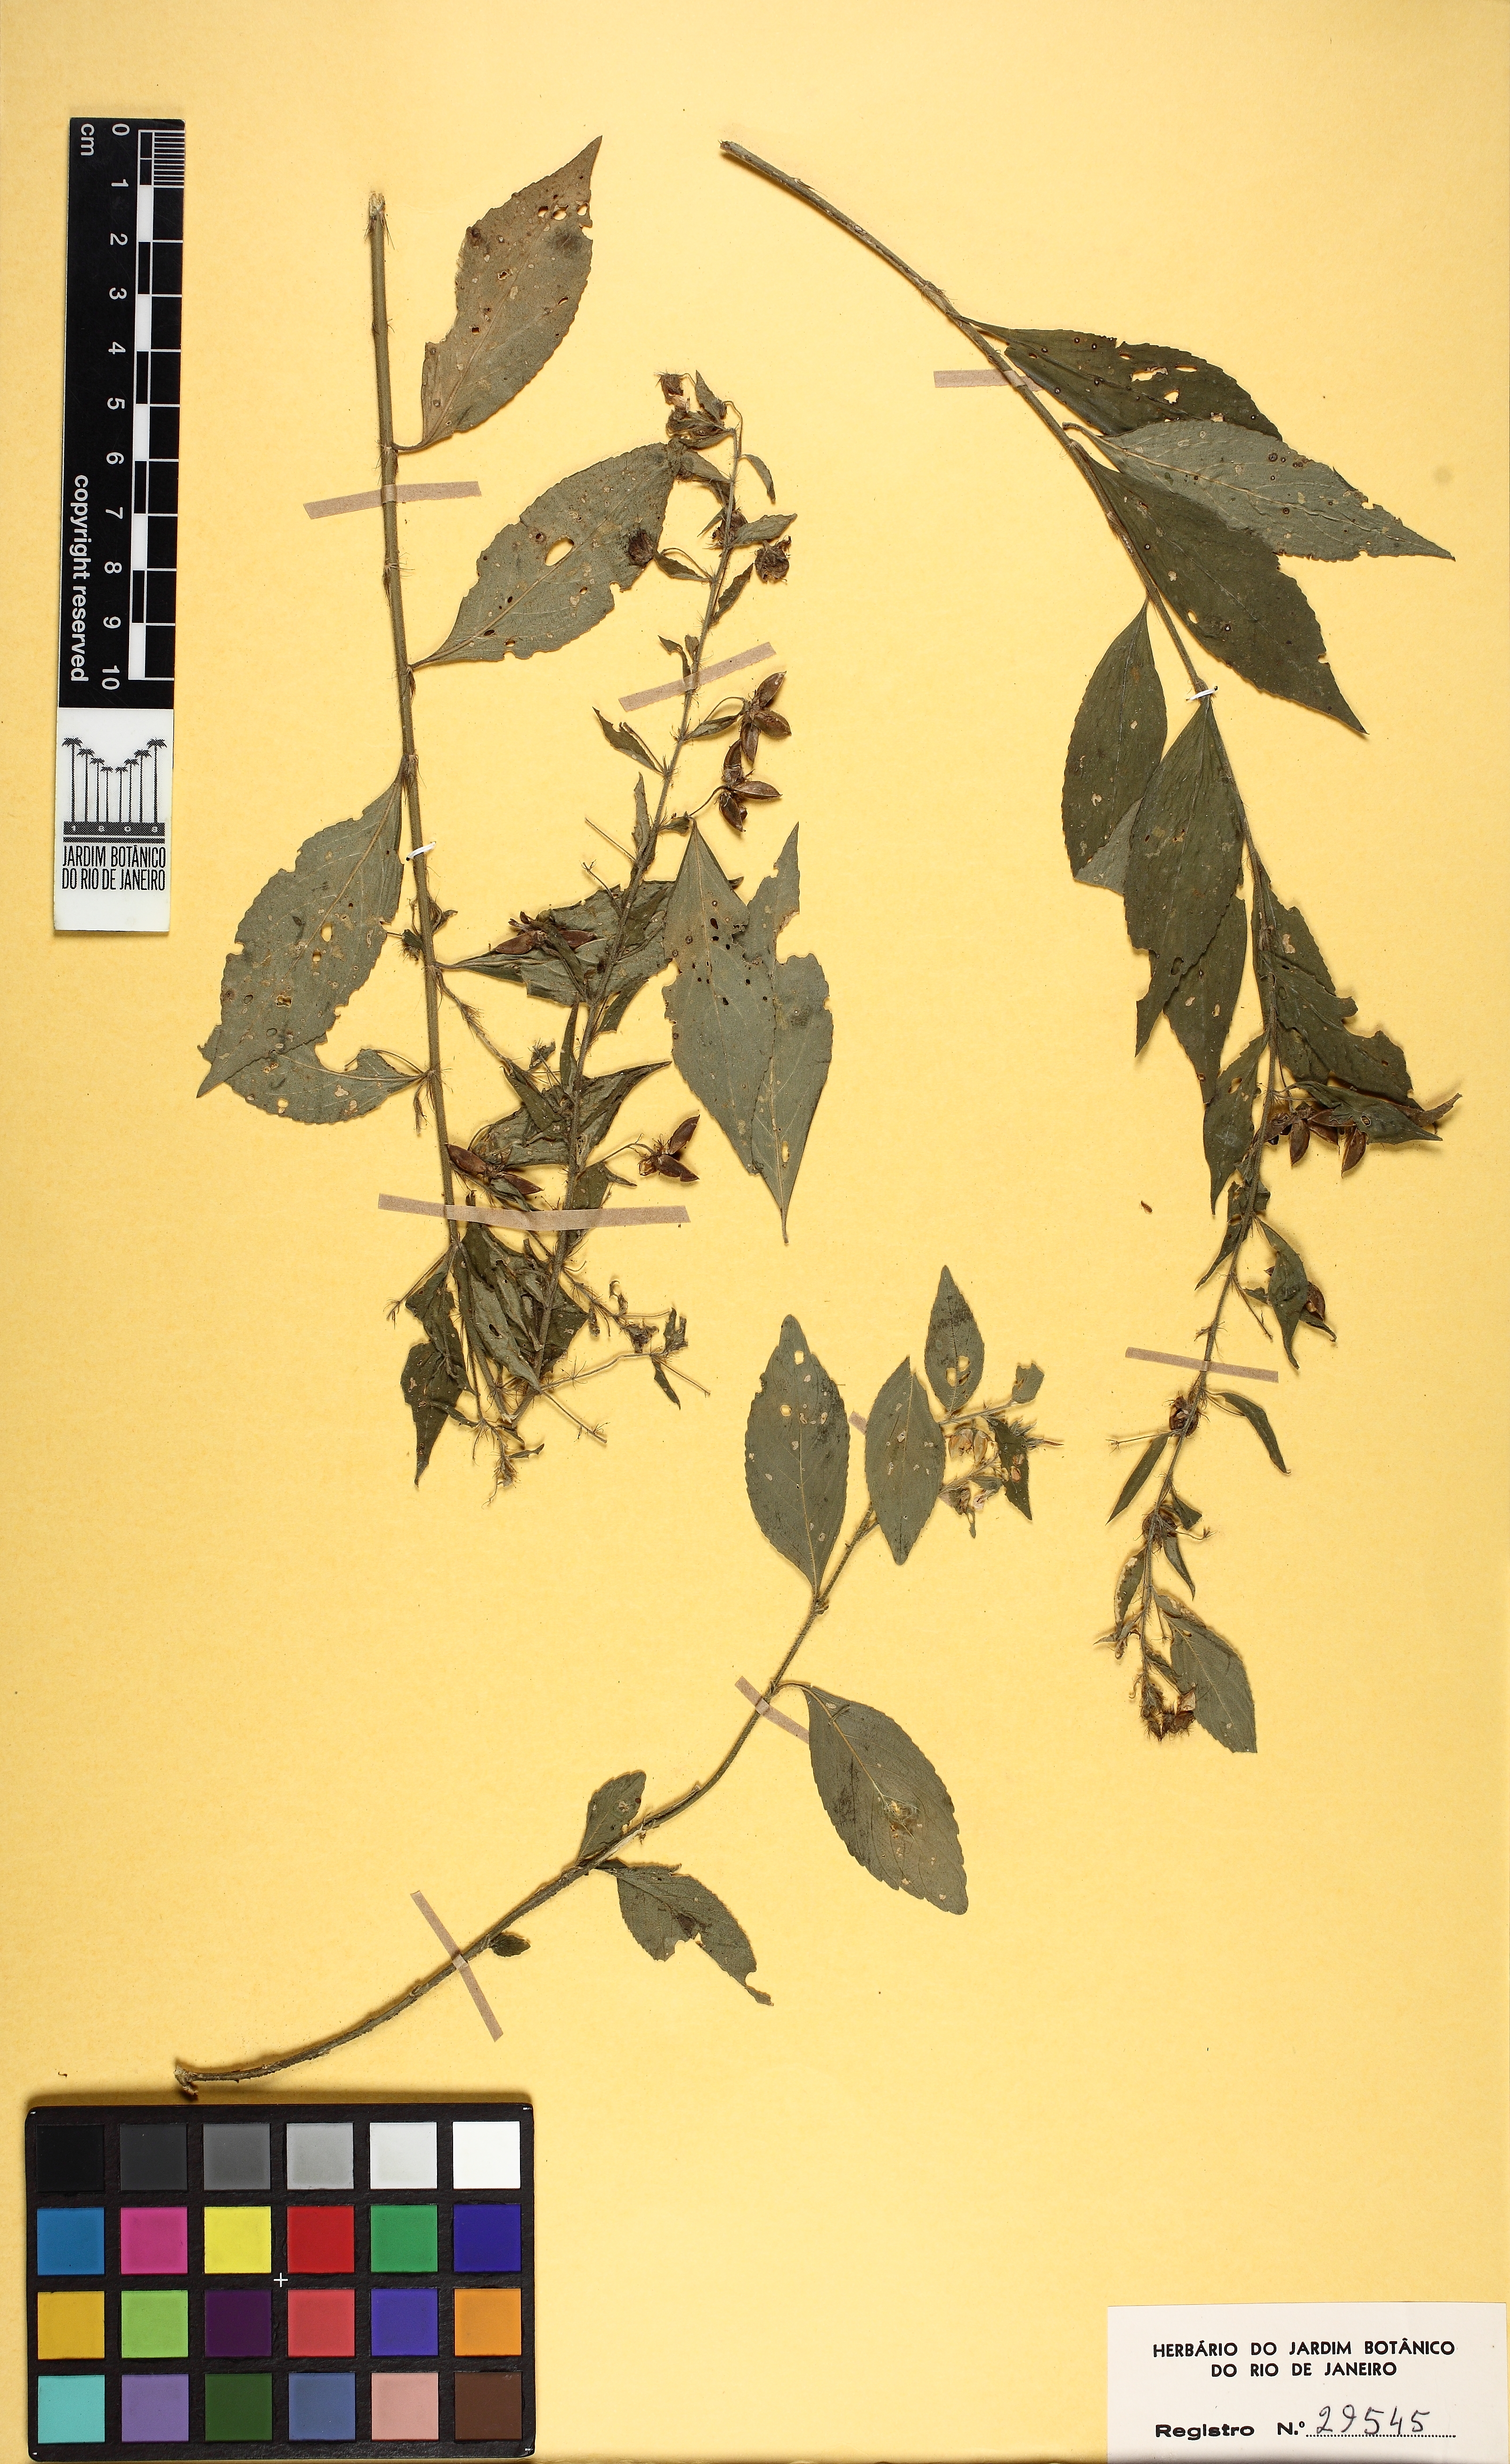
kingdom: Plantae
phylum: Tracheophyta
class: Magnoliopsida
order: Malpighiales
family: Violaceae
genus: Pombalia
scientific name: Pombalia setigera
